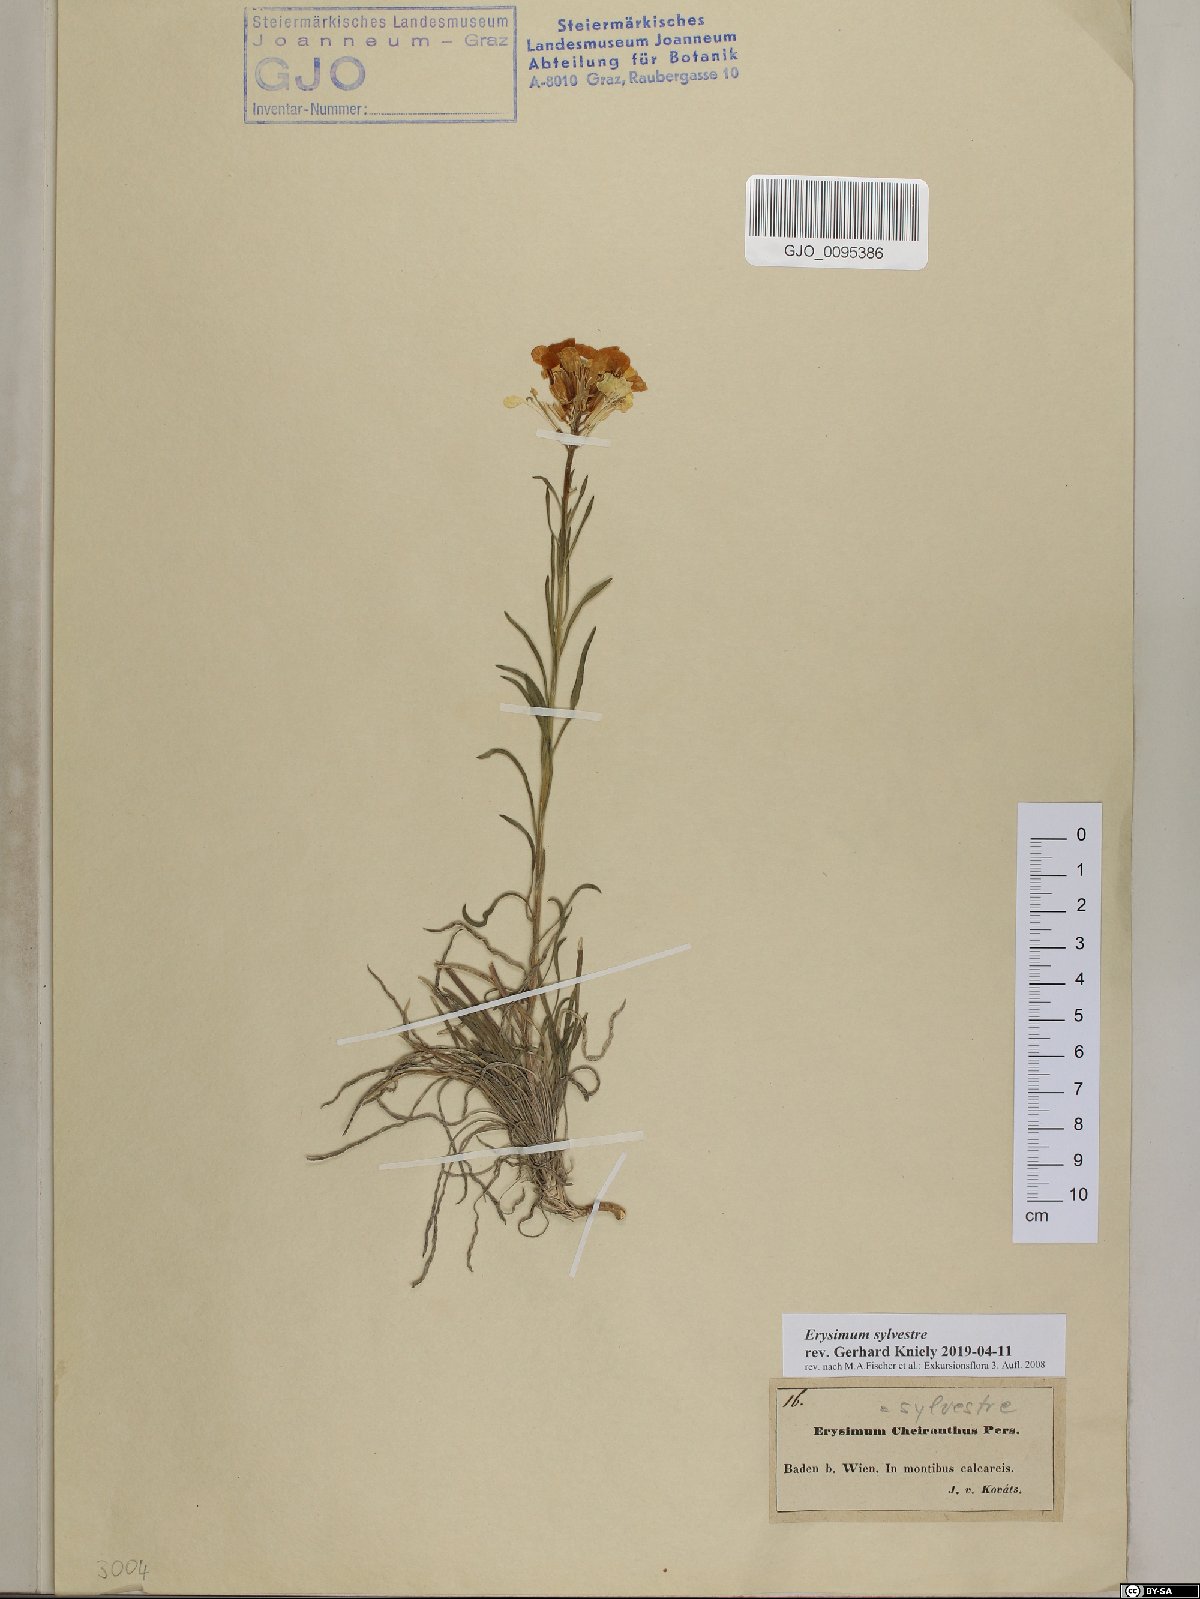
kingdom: Plantae
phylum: Tracheophyta
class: Magnoliopsida
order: Brassicales
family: Brassicaceae
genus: Erysimum
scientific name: Erysimum sylvestre
